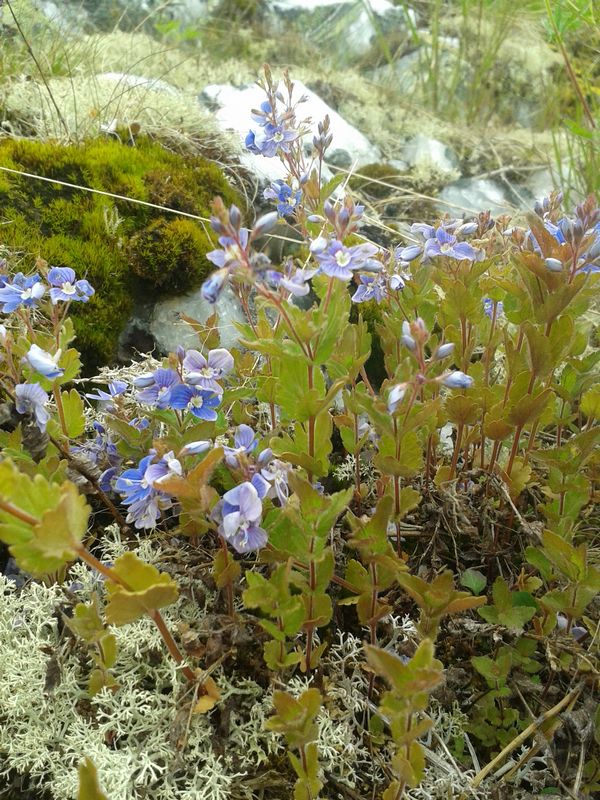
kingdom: Plantae
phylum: Tracheophyta
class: Magnoliopsida
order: Lamiales
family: Plantaginaceae
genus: Veronica
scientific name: Veronica chamaedrys
